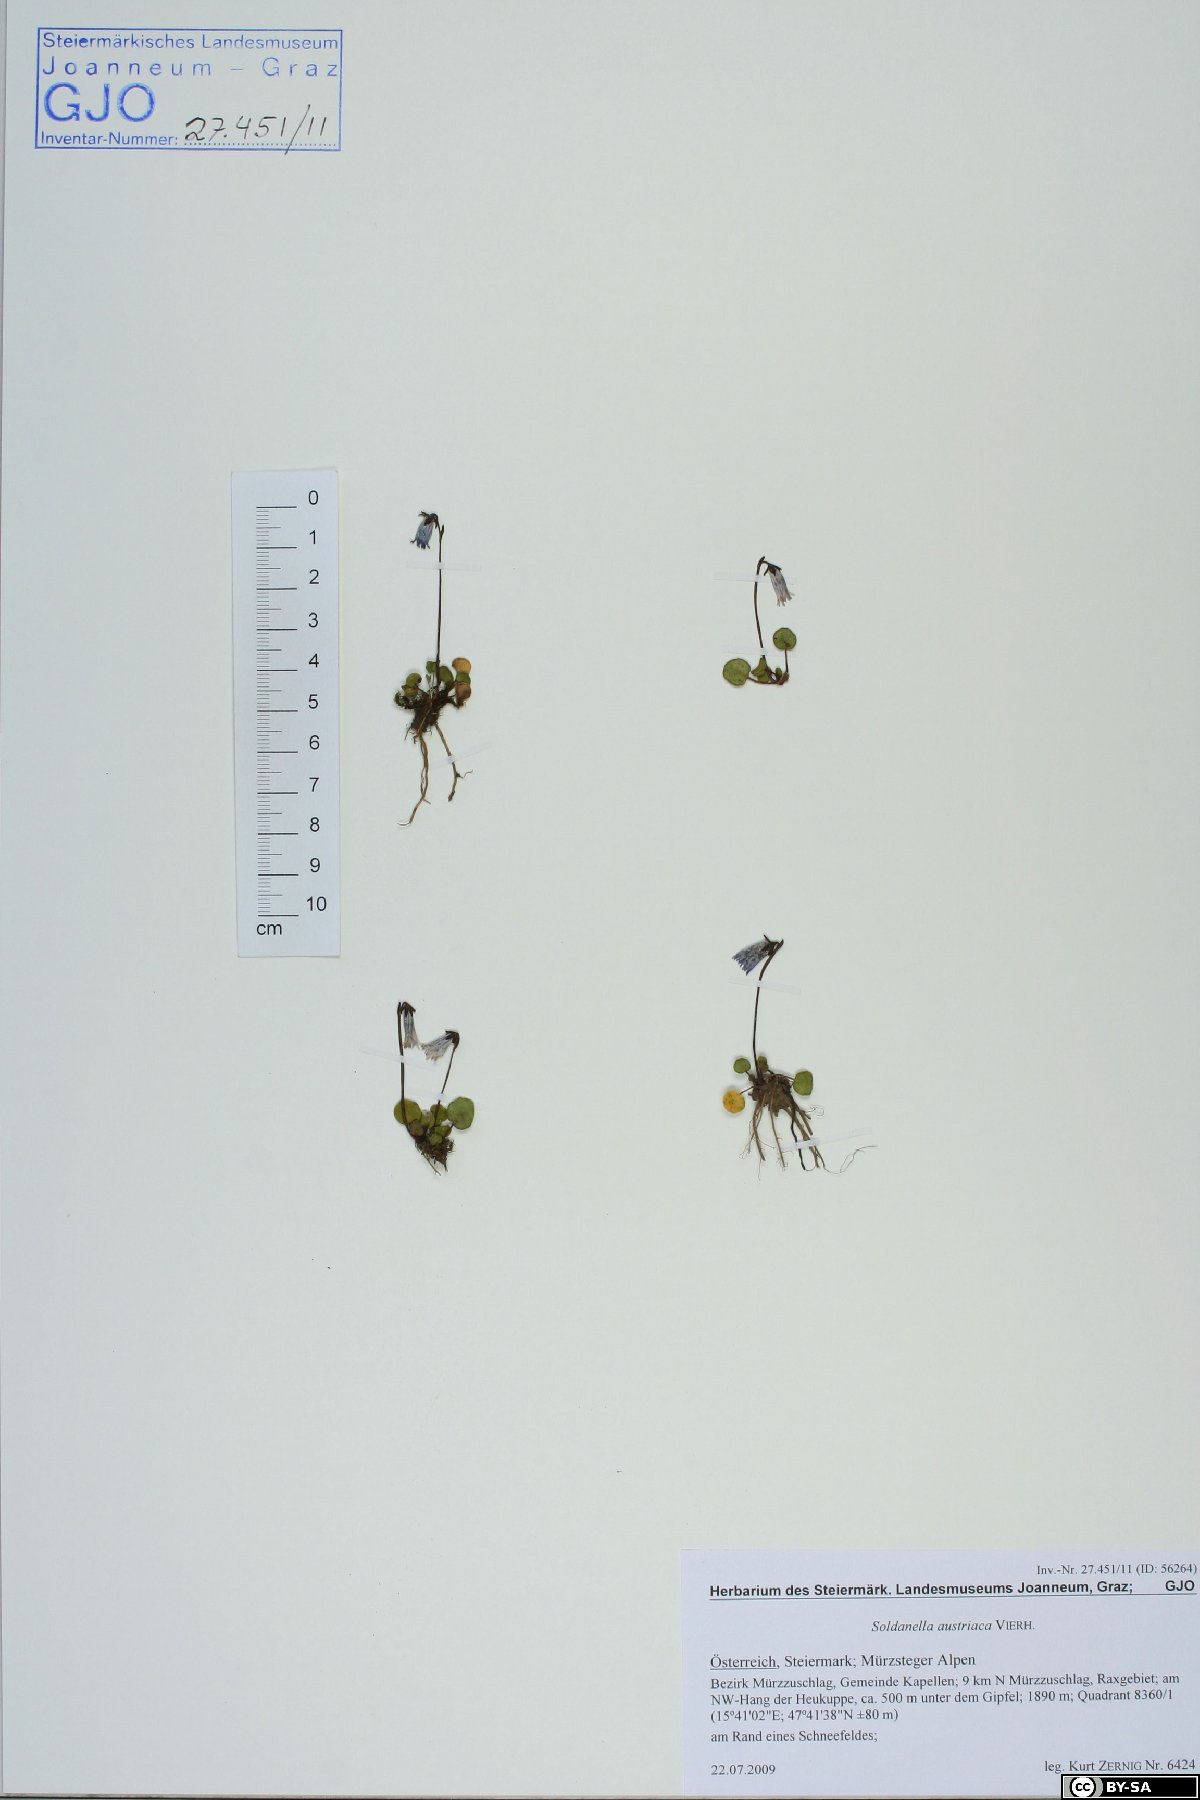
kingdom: Plantae
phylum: Tracheophyta
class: Magnoliopsida
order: Ericales
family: Primulaceae
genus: Soldanella
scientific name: Soldanella austriaca
